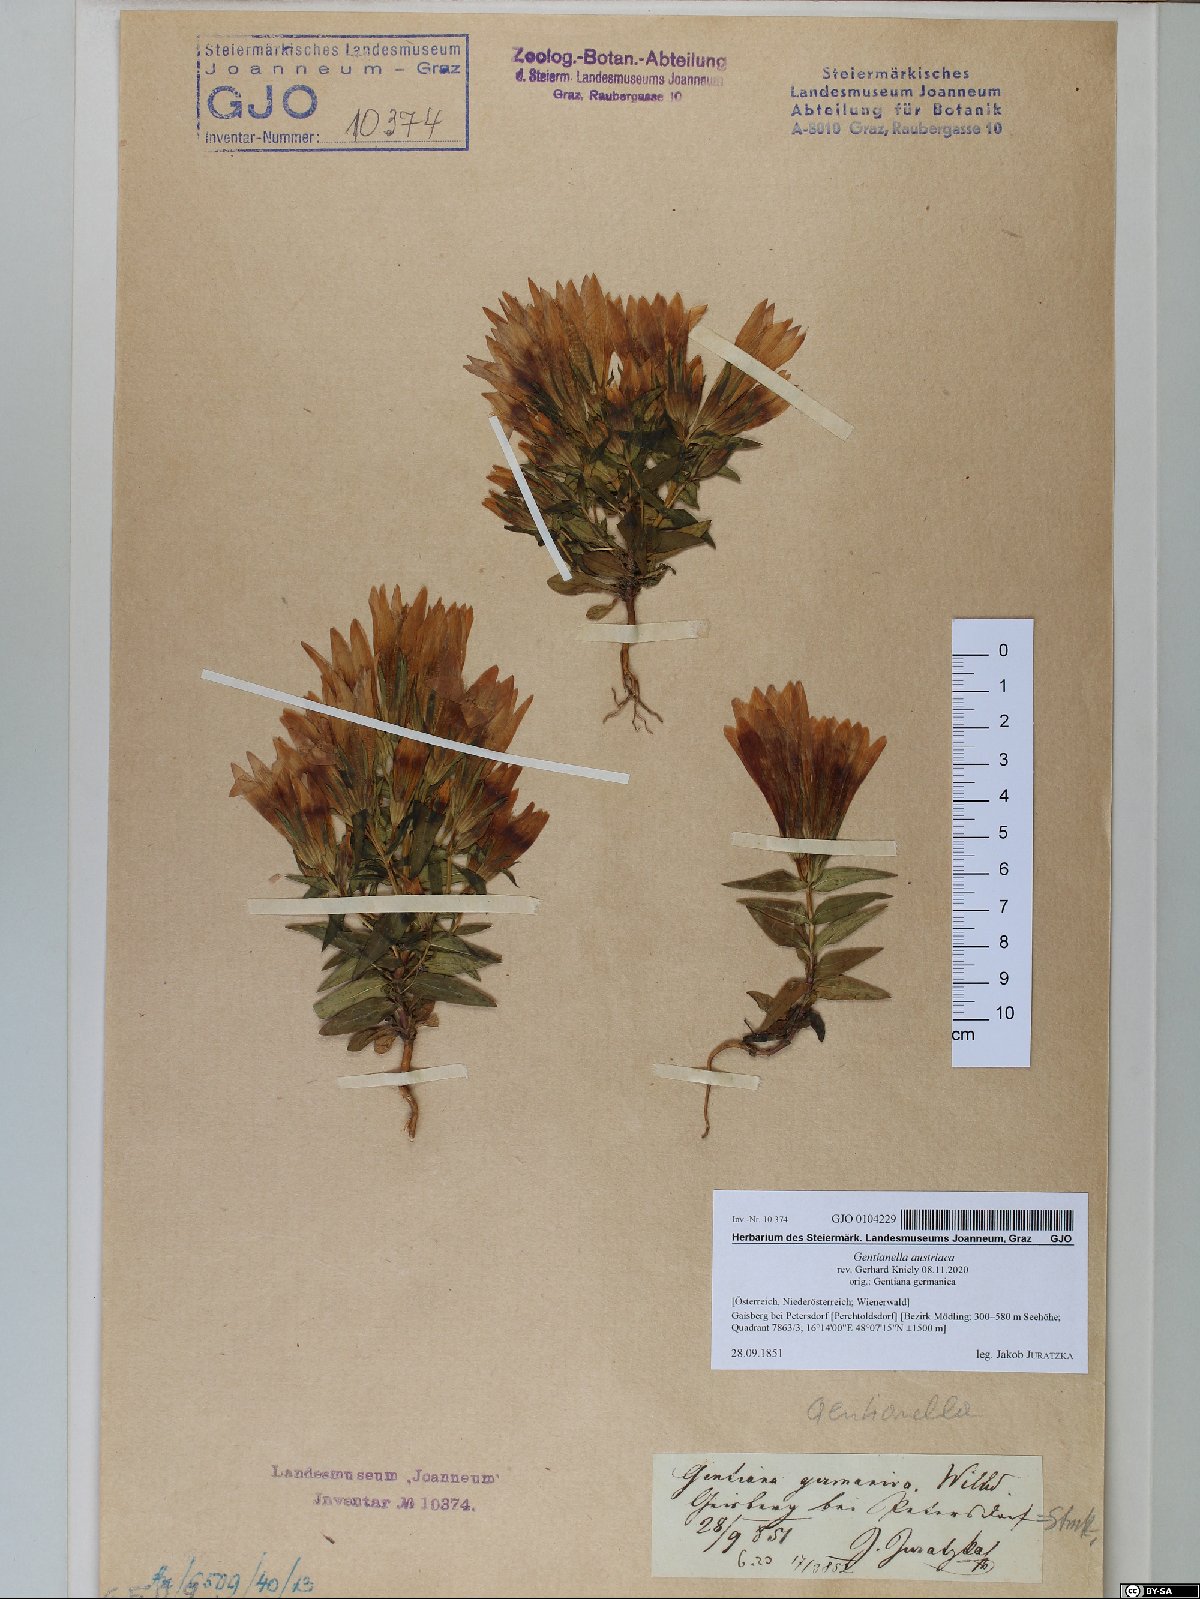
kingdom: Plantae
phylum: Tracheophyta
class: Magnoliopsida
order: Gentianales
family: Gentianaceae
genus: Gentianella
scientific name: Gentianella austriaca
